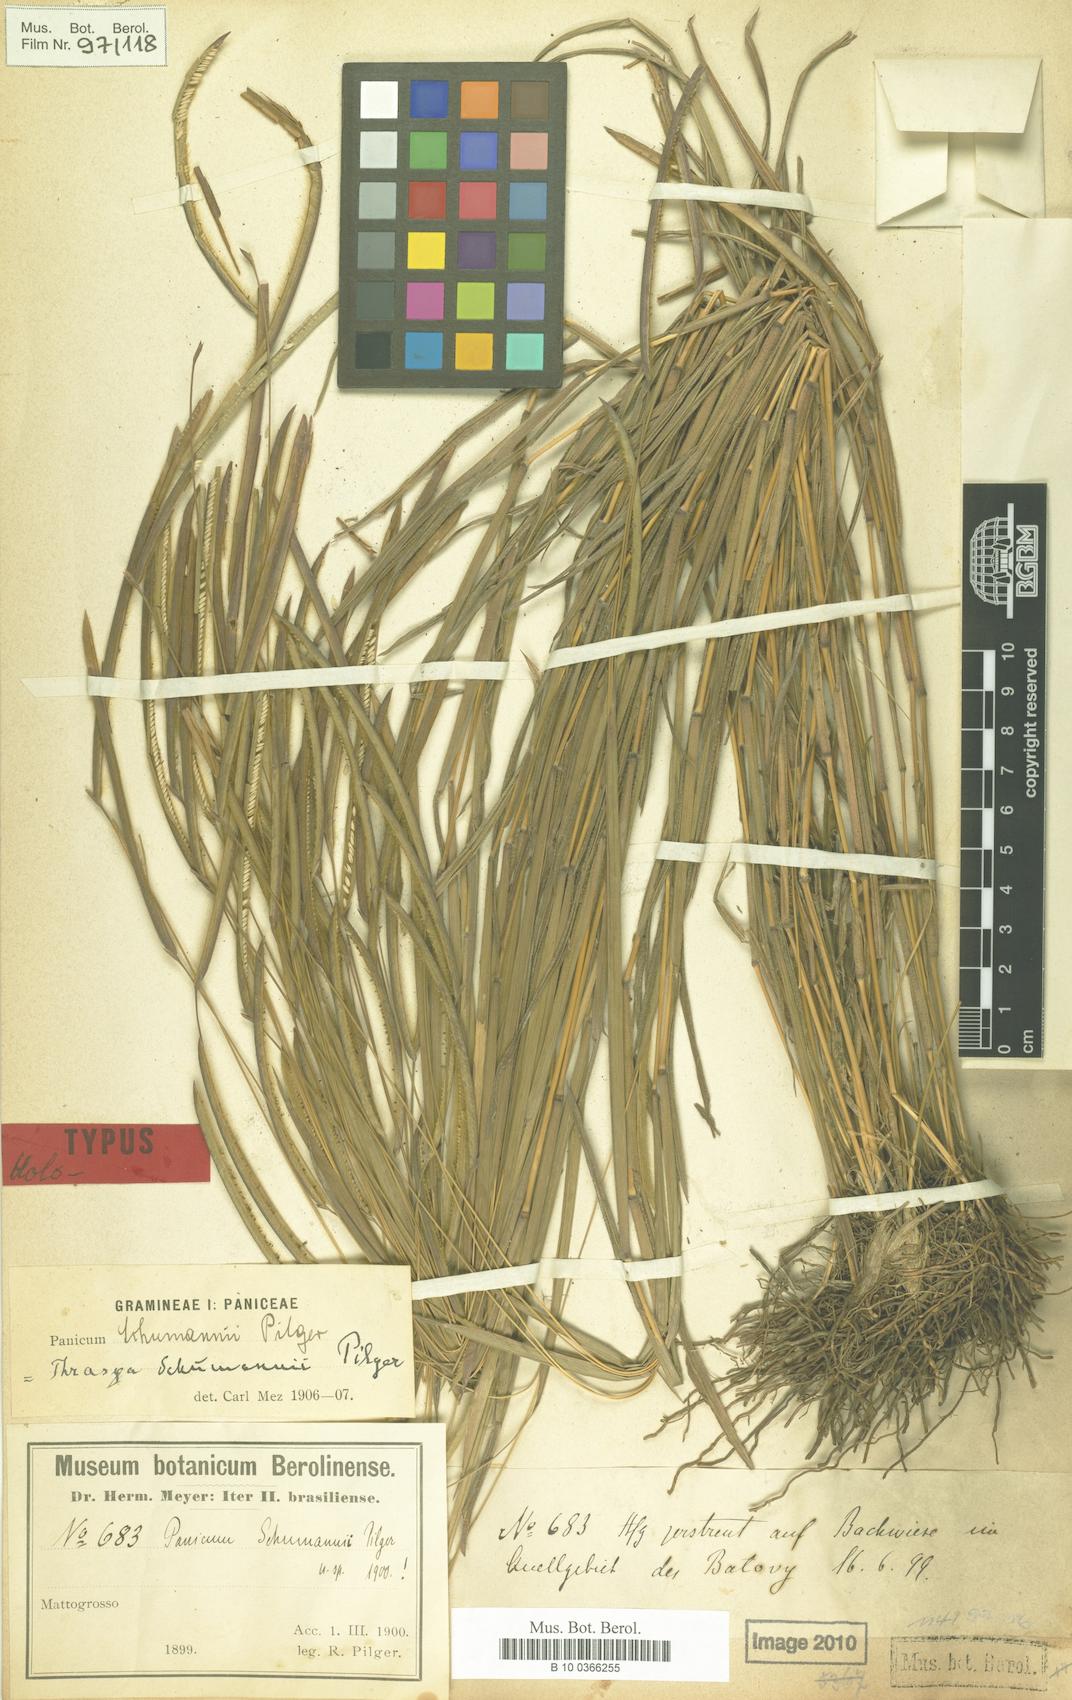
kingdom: Plantae
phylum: Tracheophyta
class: Liliopsida
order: Poales
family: Poaceae
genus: Paspalum
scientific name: Paspalum schumannii
